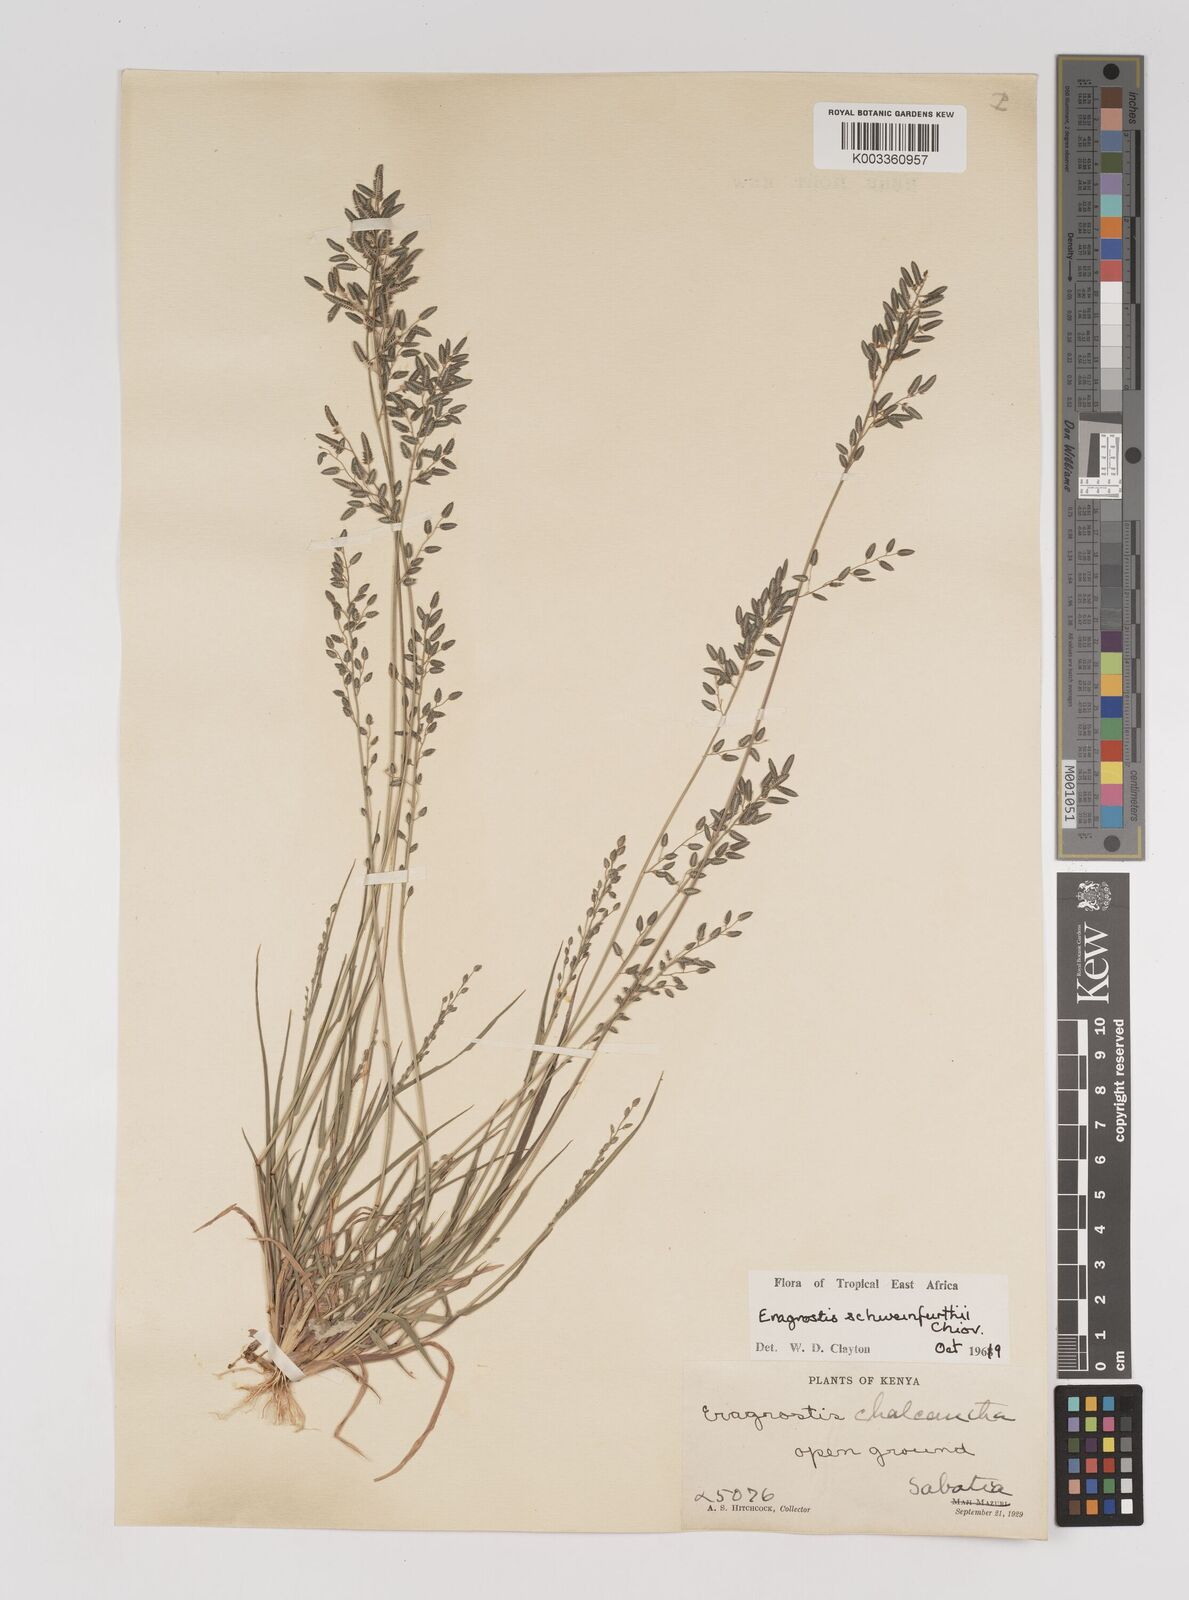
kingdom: Plantae
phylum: Tracheophyta
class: Liliopsida
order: Poales
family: Poaceae
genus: Eragrostis
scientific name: Eragrostis schweinfurthii
